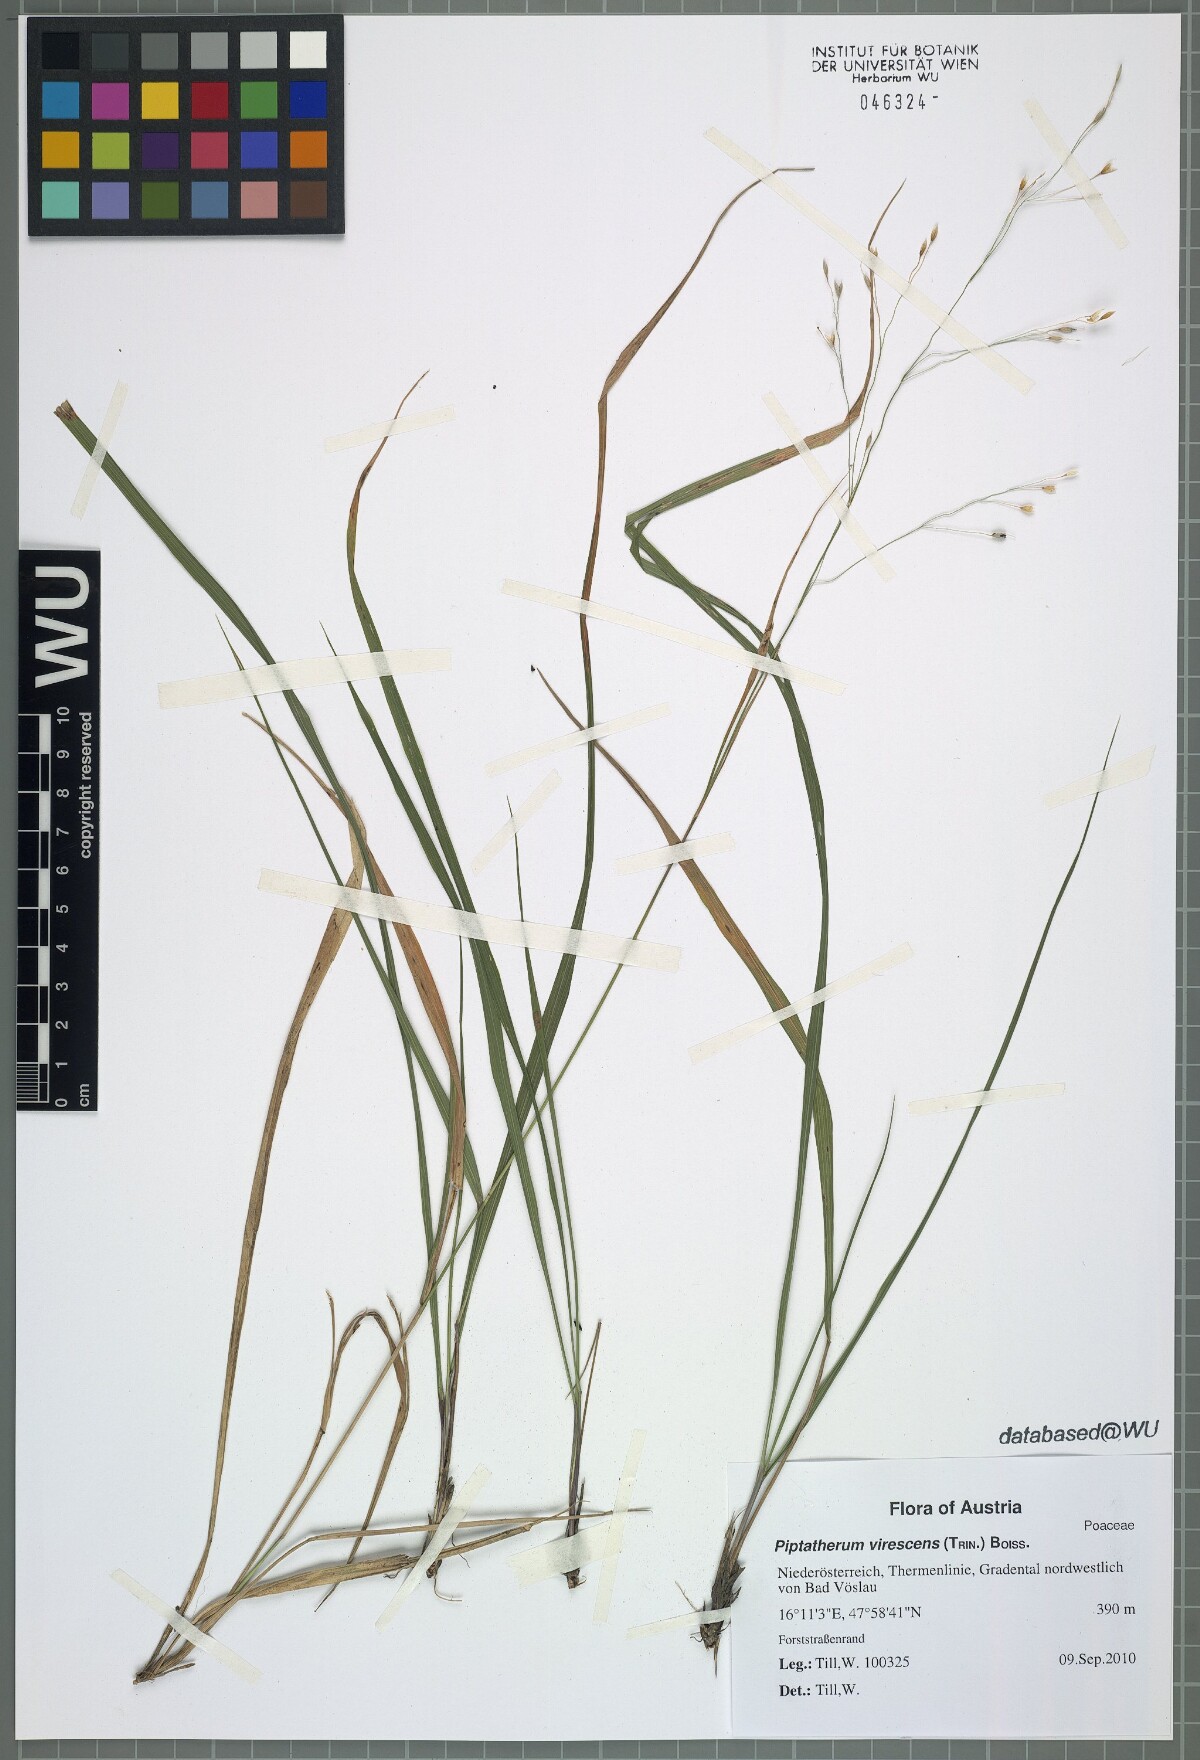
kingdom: Plantae
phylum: Tracheophyta
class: Liliopsida
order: Poales
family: Poaceae
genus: Achnatherum
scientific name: Achnatherum virescens
